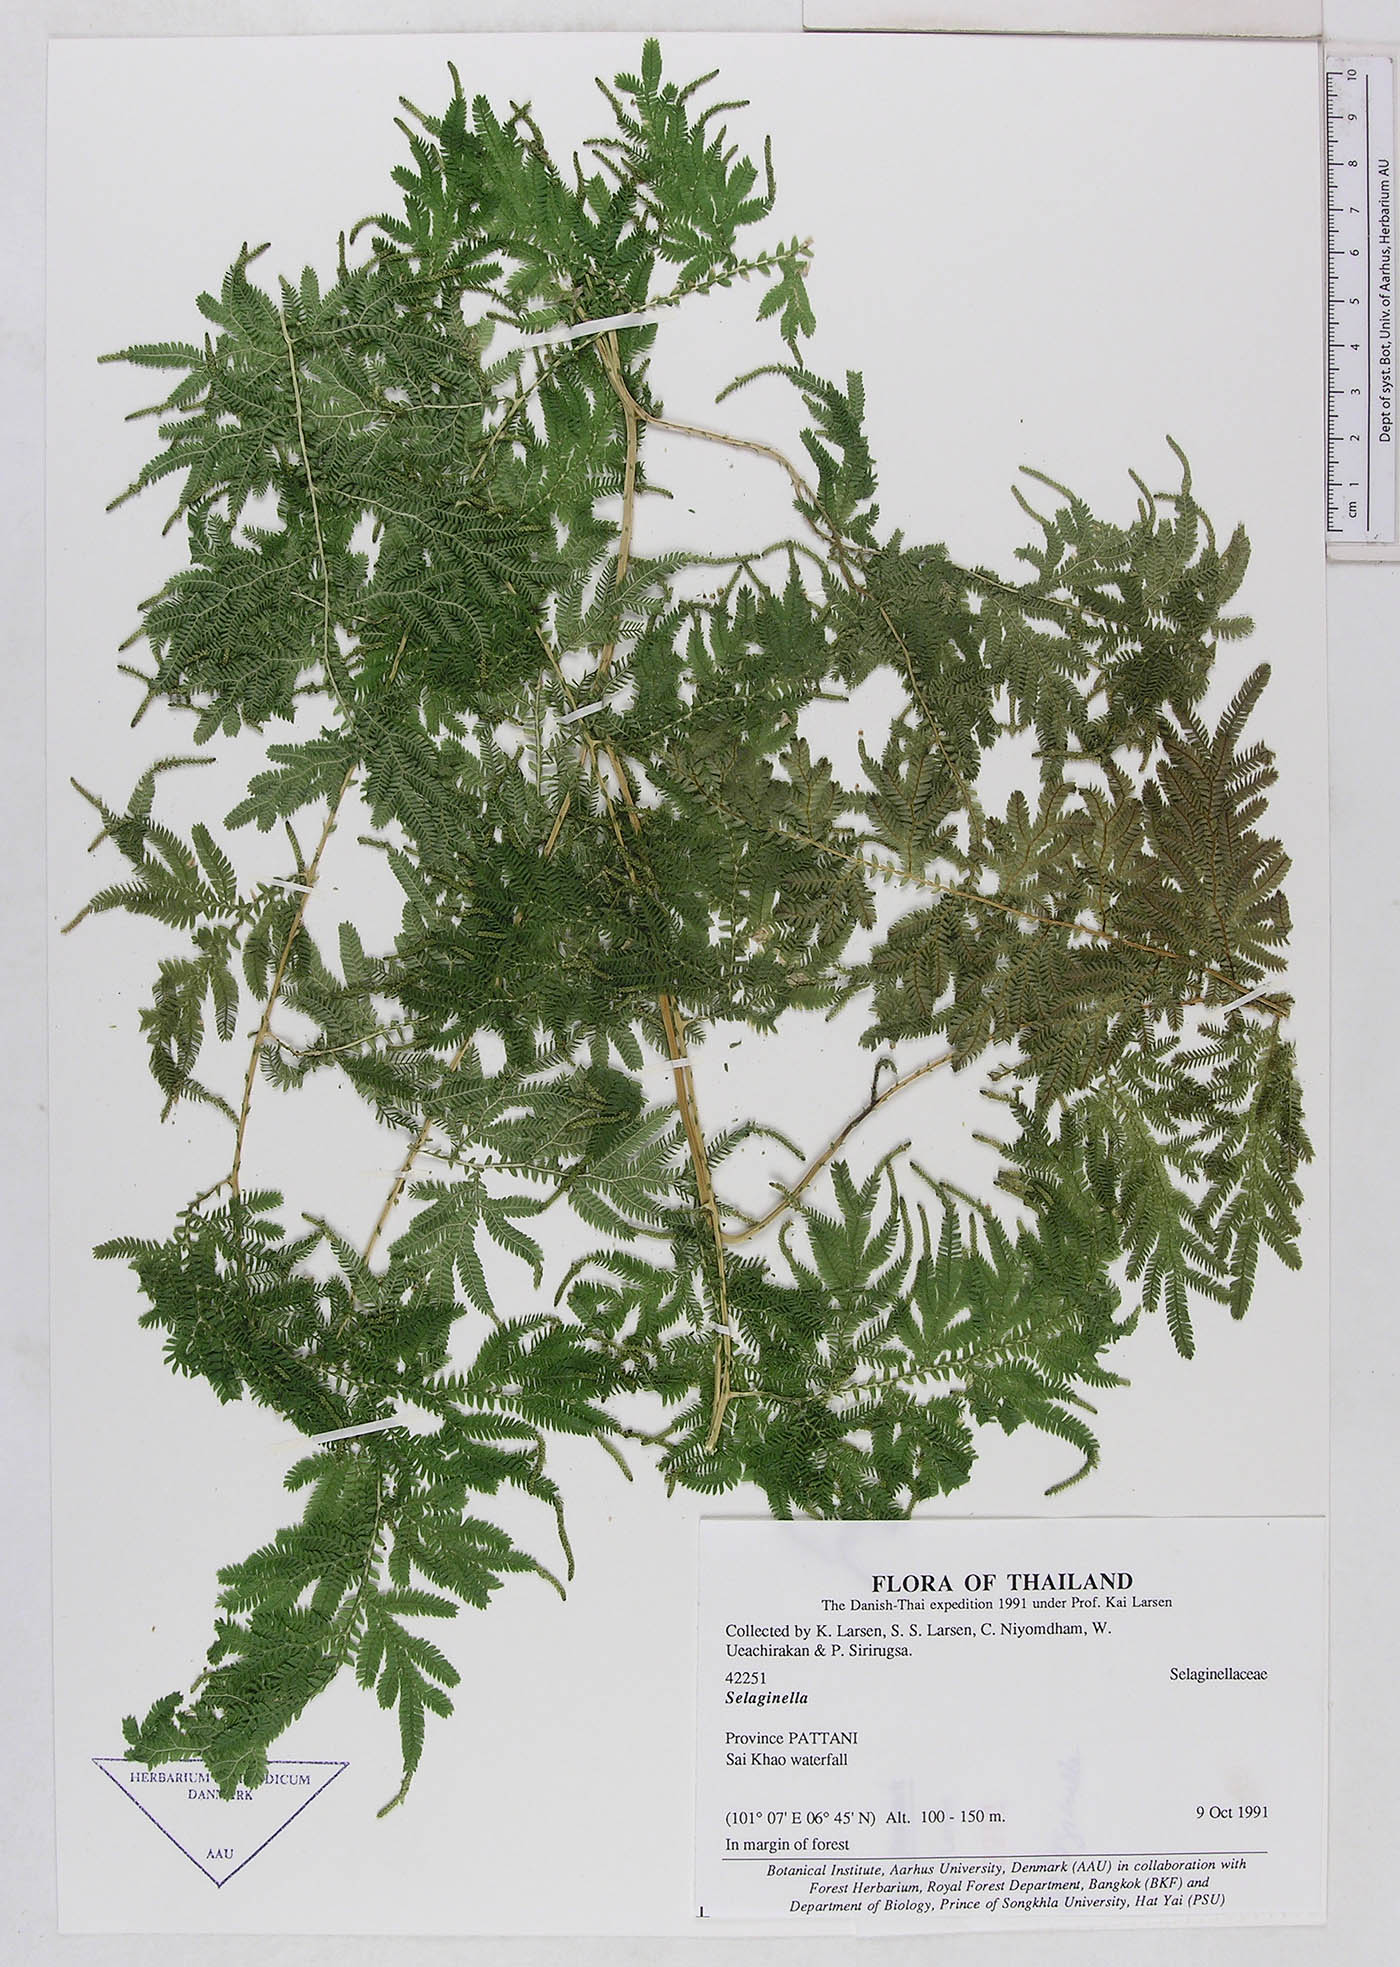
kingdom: Plantae
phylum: Tracheophyta
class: Lycopodiopsida
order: Selaginellales
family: Selaginellaceae
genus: Selaginella
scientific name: Selaginella
